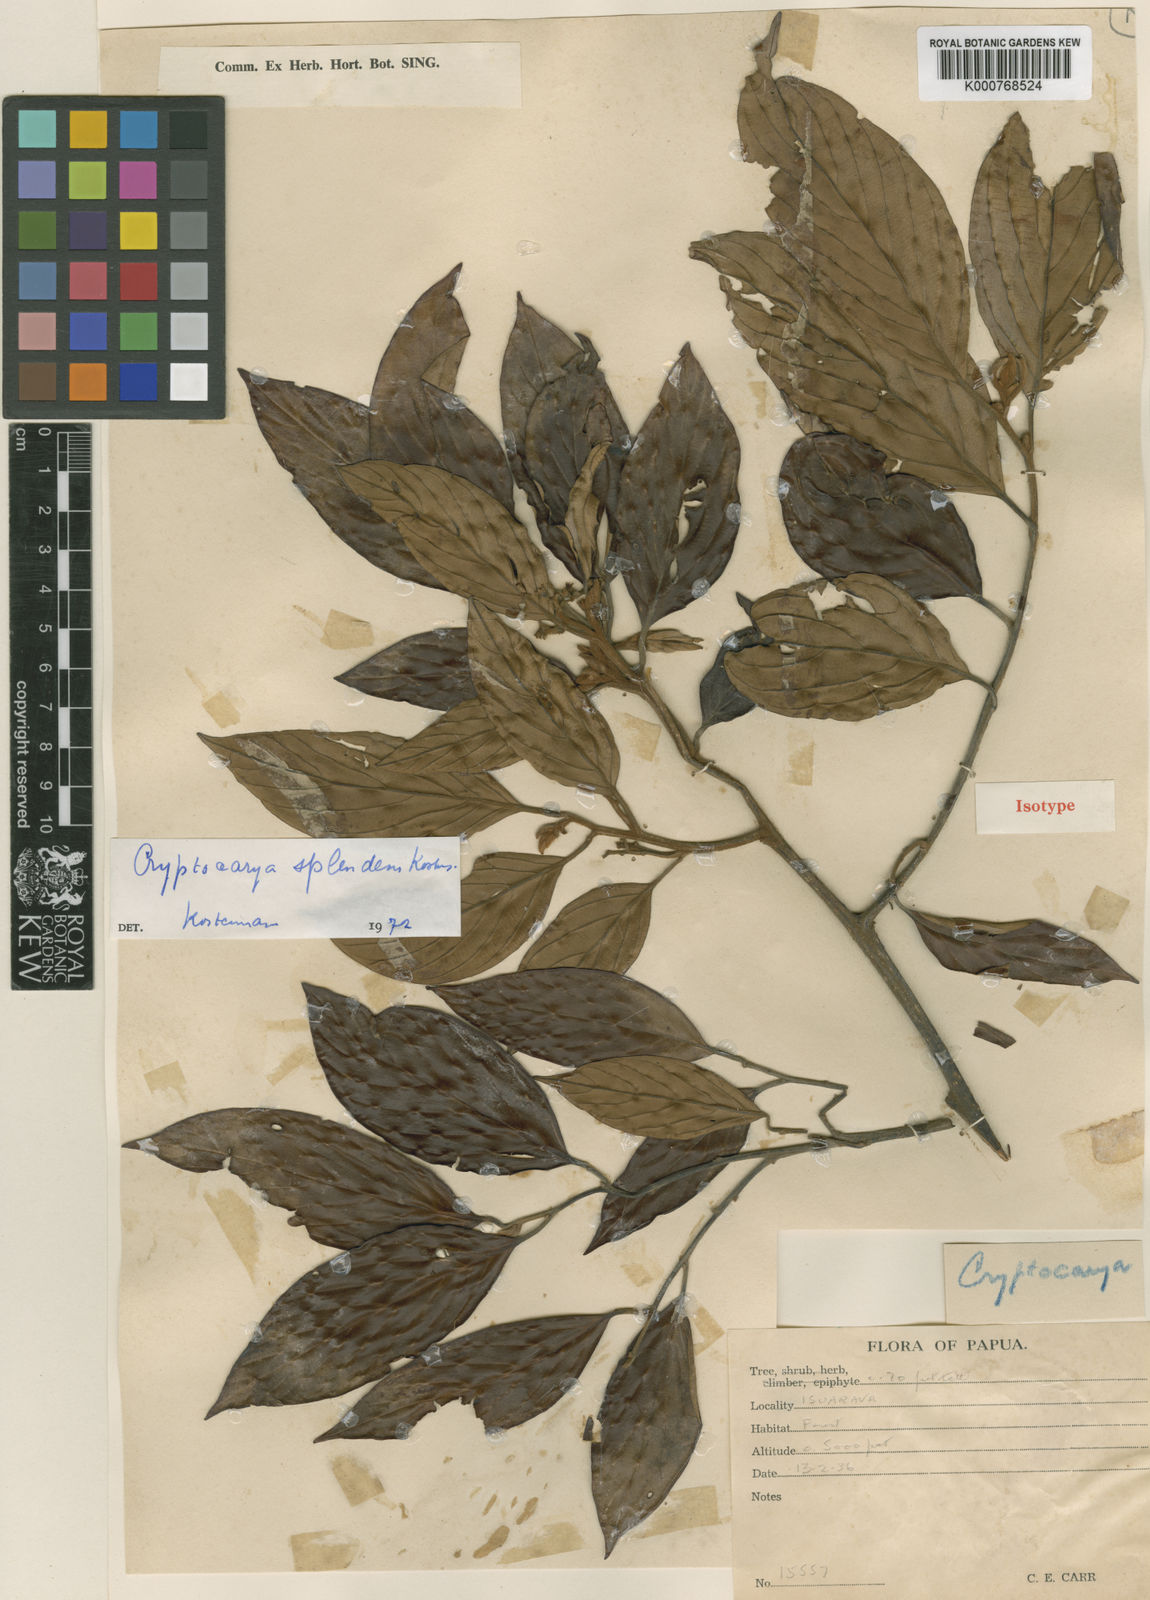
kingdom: Plantae
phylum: Tracheophyta
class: Magnoliopsida
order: Laurales
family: Lauraceae
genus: Cryptocarya
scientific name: Cryptocarya splendens
